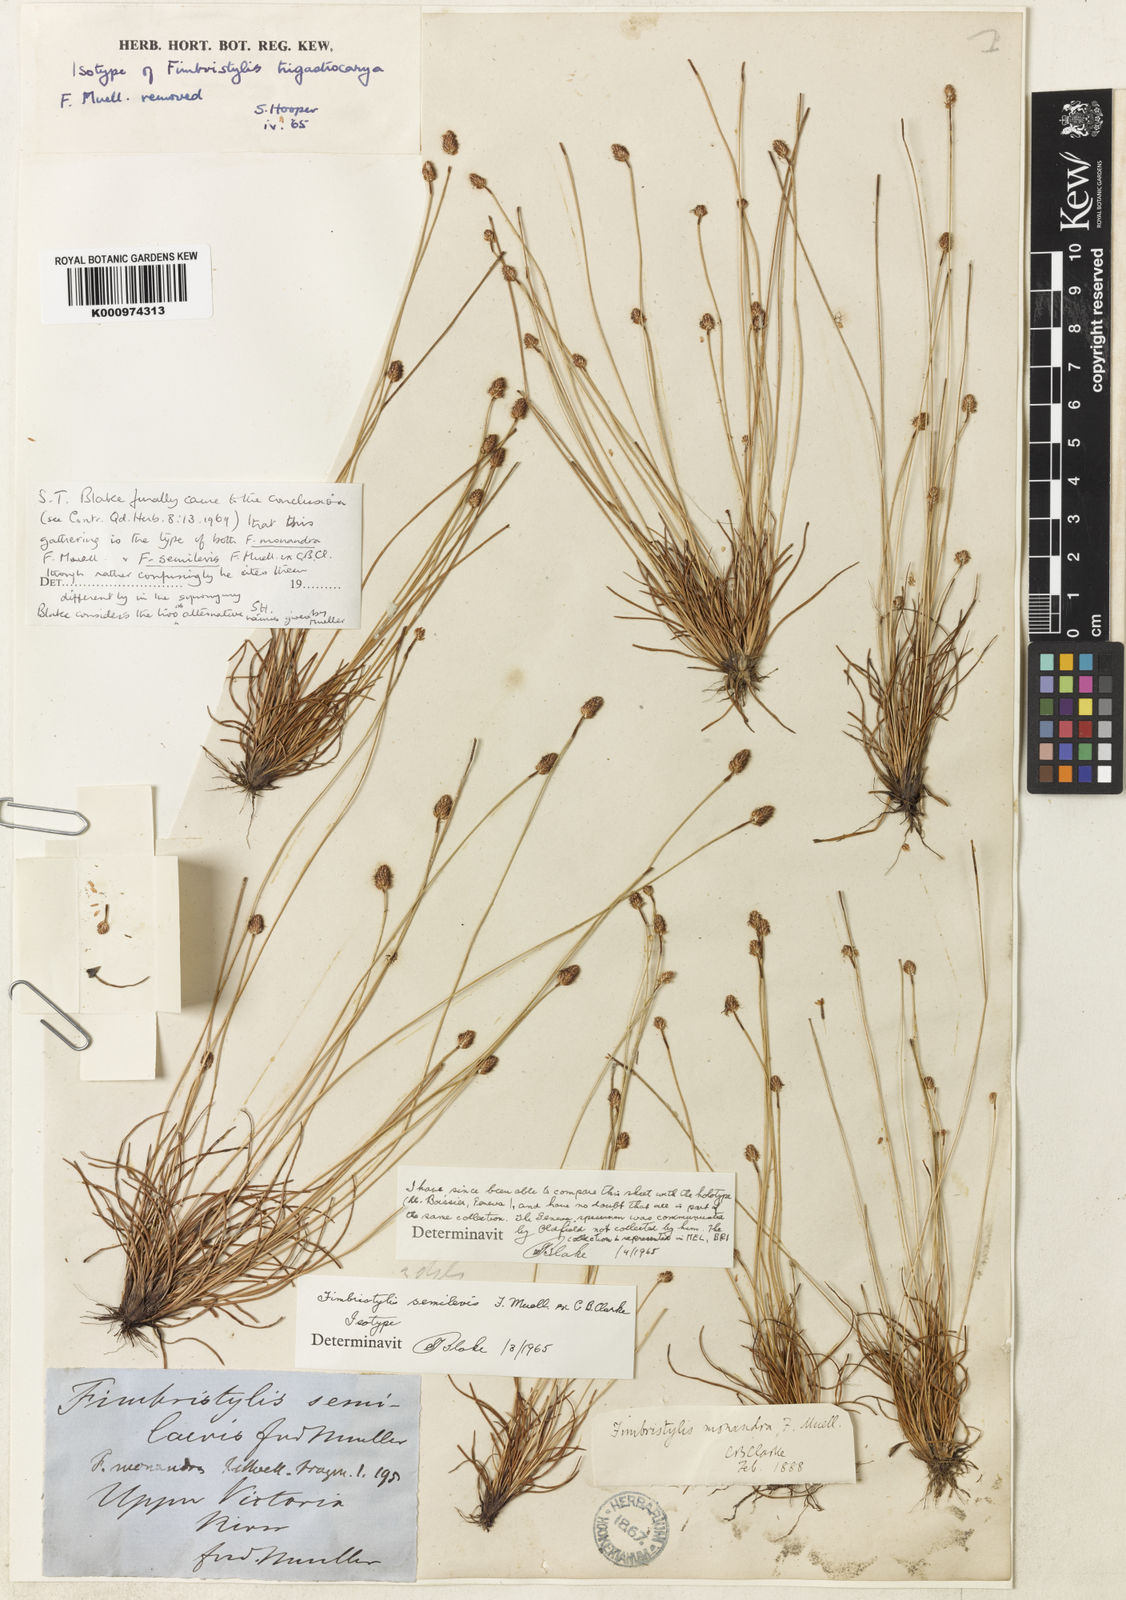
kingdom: Plantae
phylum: Tracheophyta
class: Liliopsida
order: Poales
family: Cyperaceae
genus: Fimbristylis
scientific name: Fimbristylis sphaerocephala
